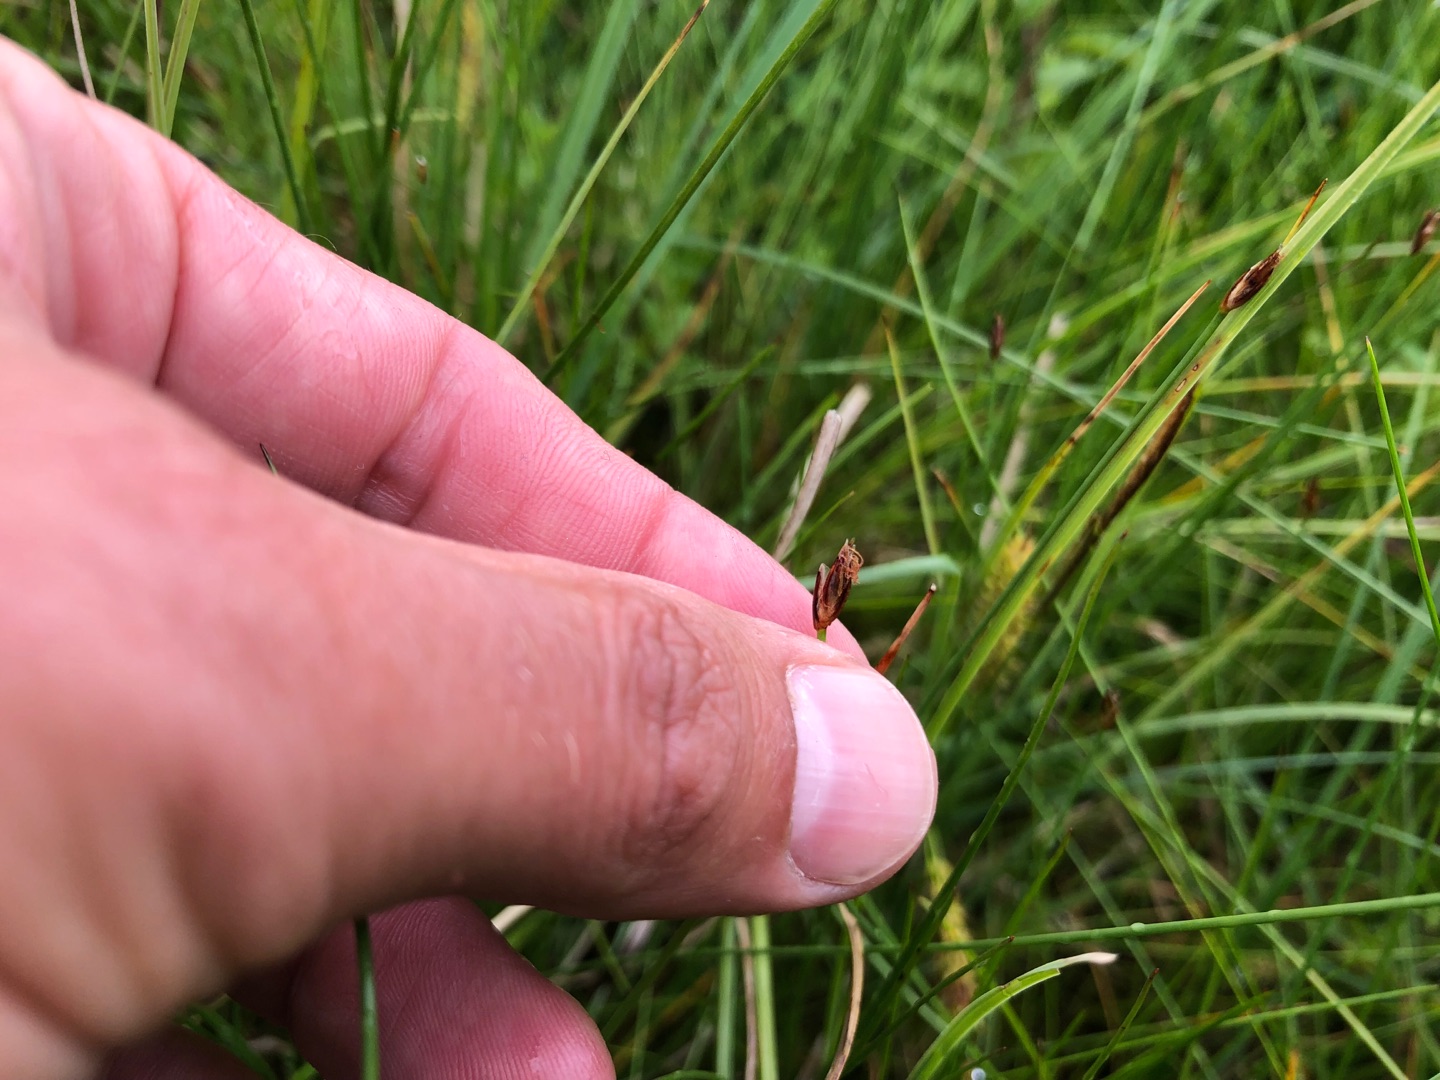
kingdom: Plantae
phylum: Tracheophyta
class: Liliopsida
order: Poales
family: Cyperaceae
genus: Eleocharis
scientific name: Eleocharis quinqueflora
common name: Fåblomstret kogleaks
